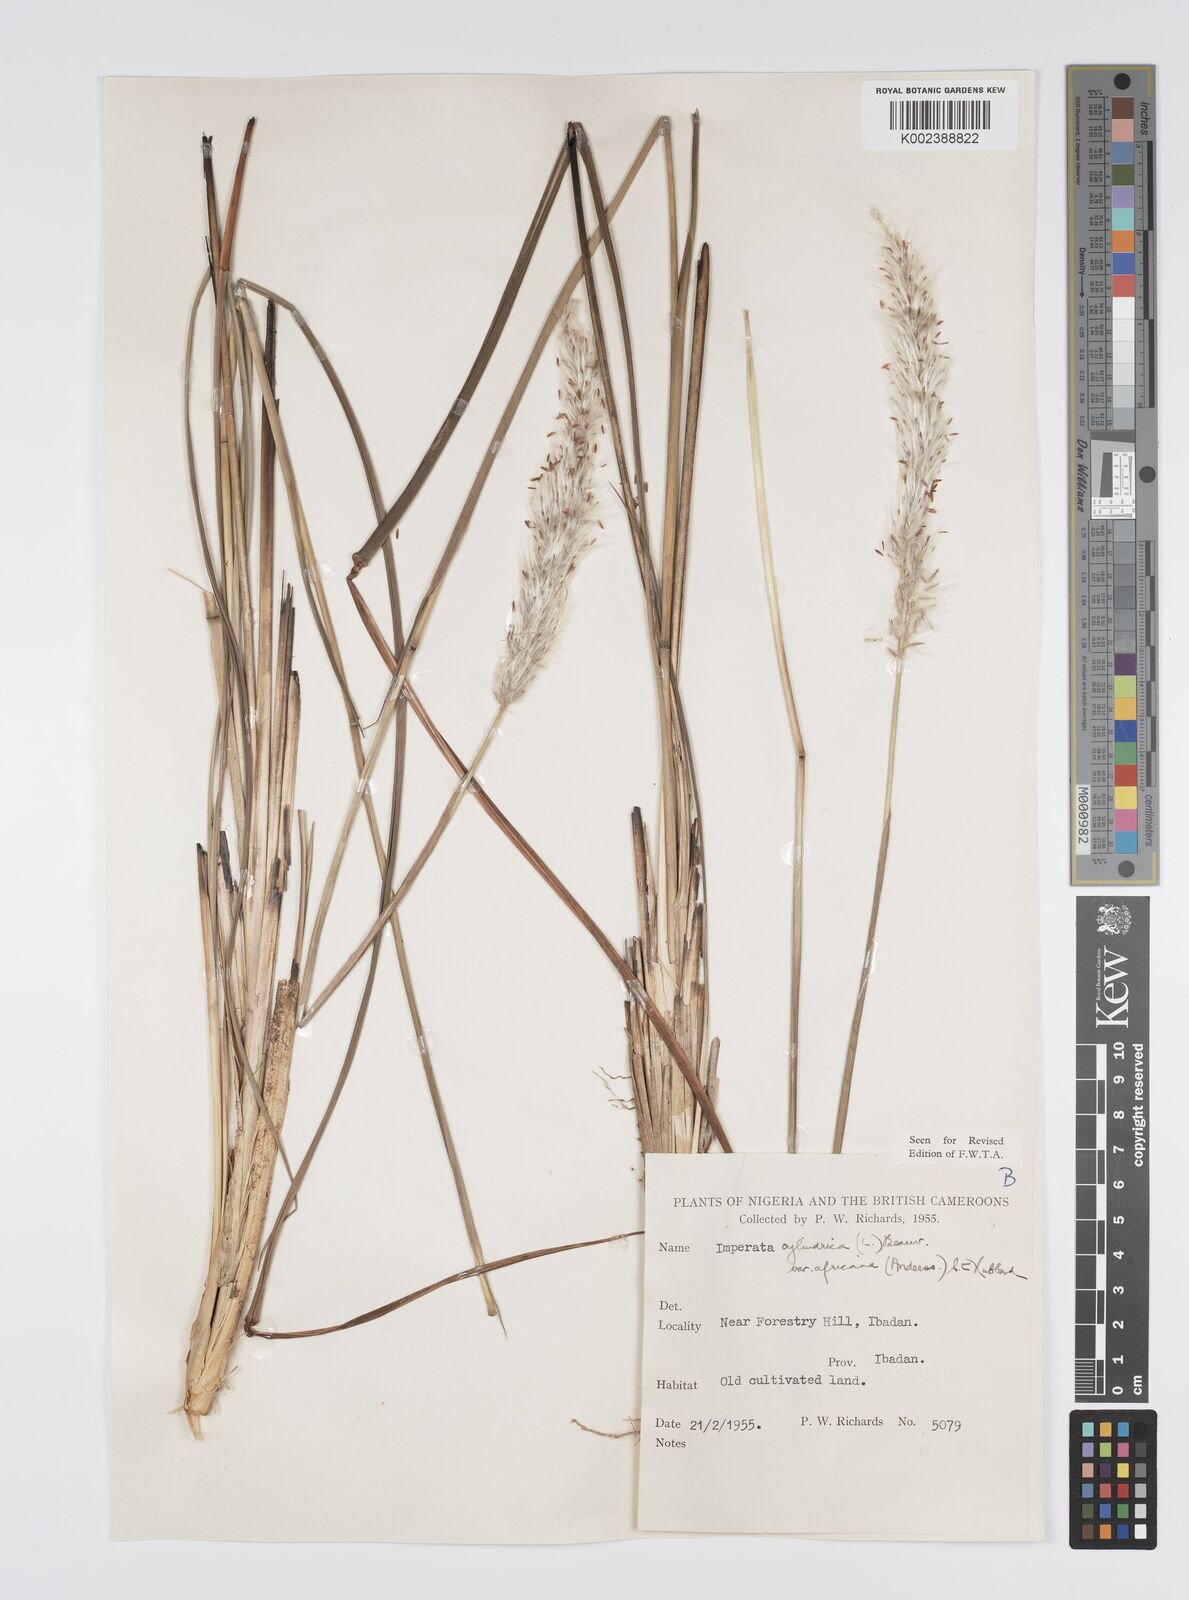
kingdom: Plantae
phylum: Tracheophyta
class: Liliopsida
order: Poales
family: Poaceae
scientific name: Poaceae
